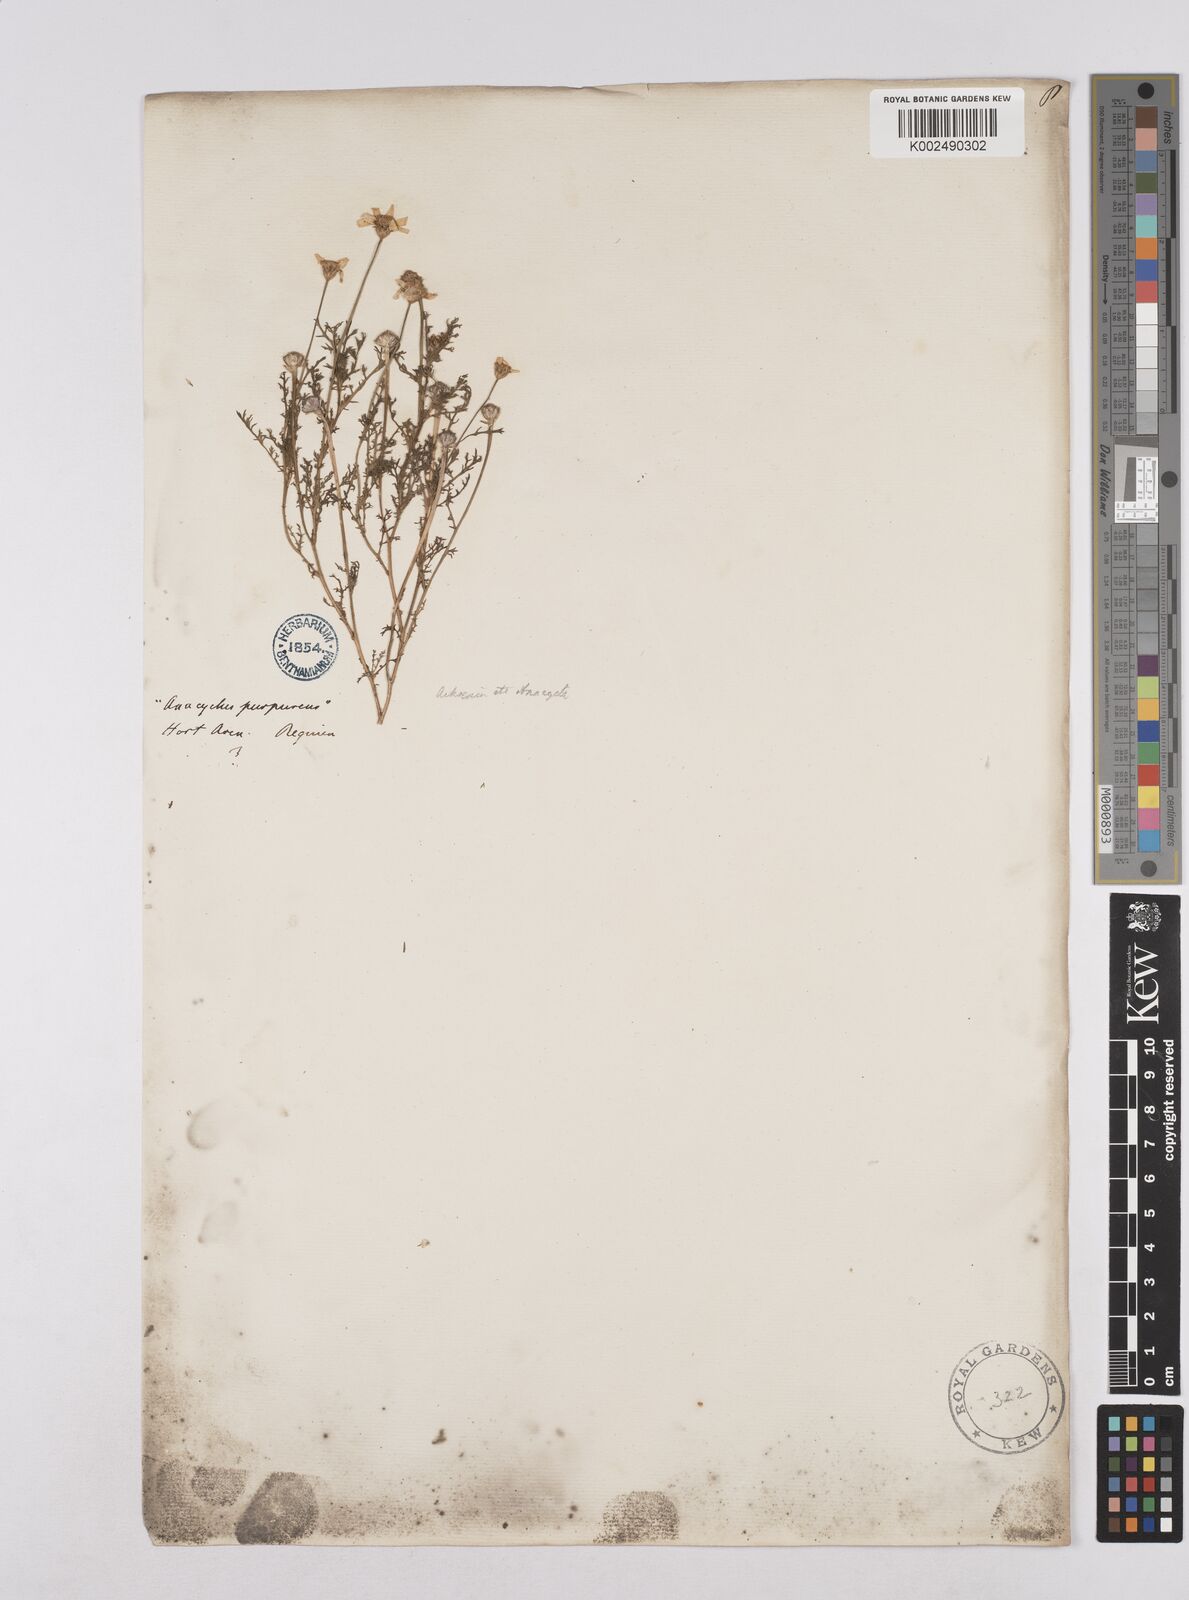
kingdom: Plantae
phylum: Tracheophyta
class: Magnoliopsida
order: Asterales
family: Asteraceae
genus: Cladanthus
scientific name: Cladanthus mixtus
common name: Weedy dogfennel
